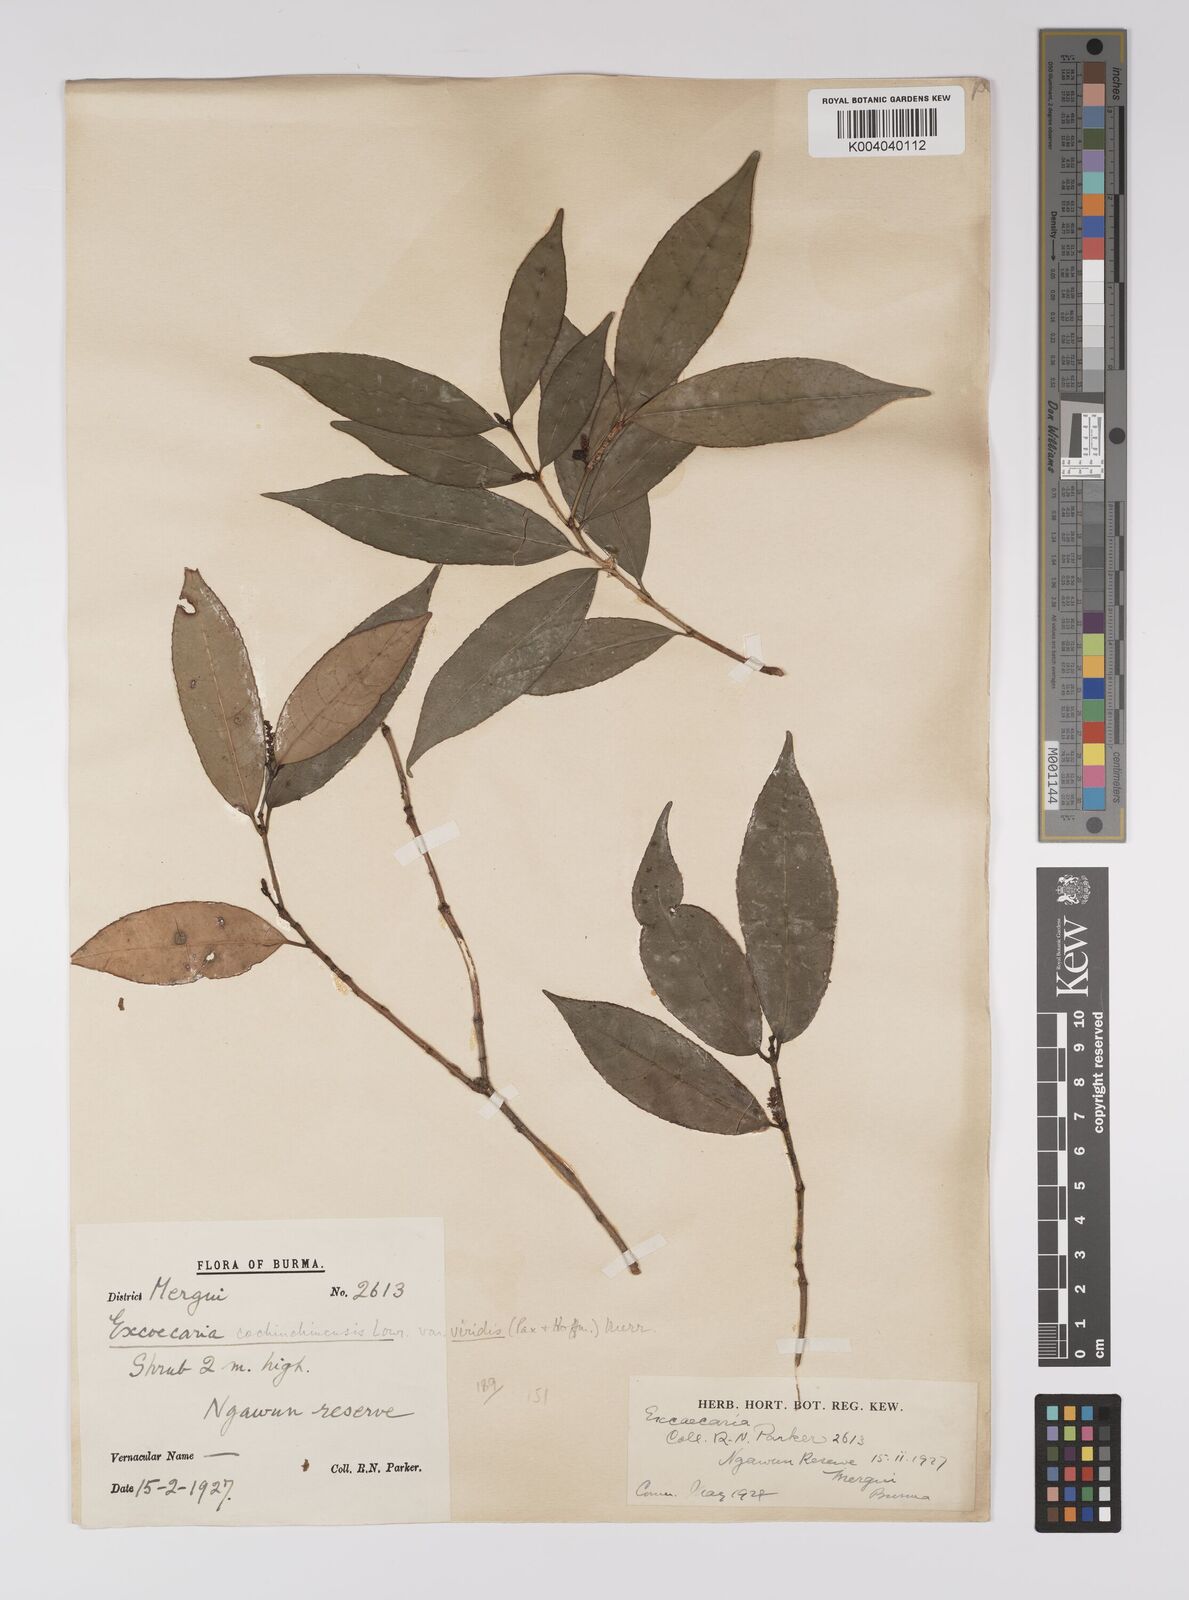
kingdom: Plantae
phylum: Tracheophyta
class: Magnoliopsida
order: Malpighiales
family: Euphorbiaceae
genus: Excoecaria
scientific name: Excoecaria cochinchinensis
